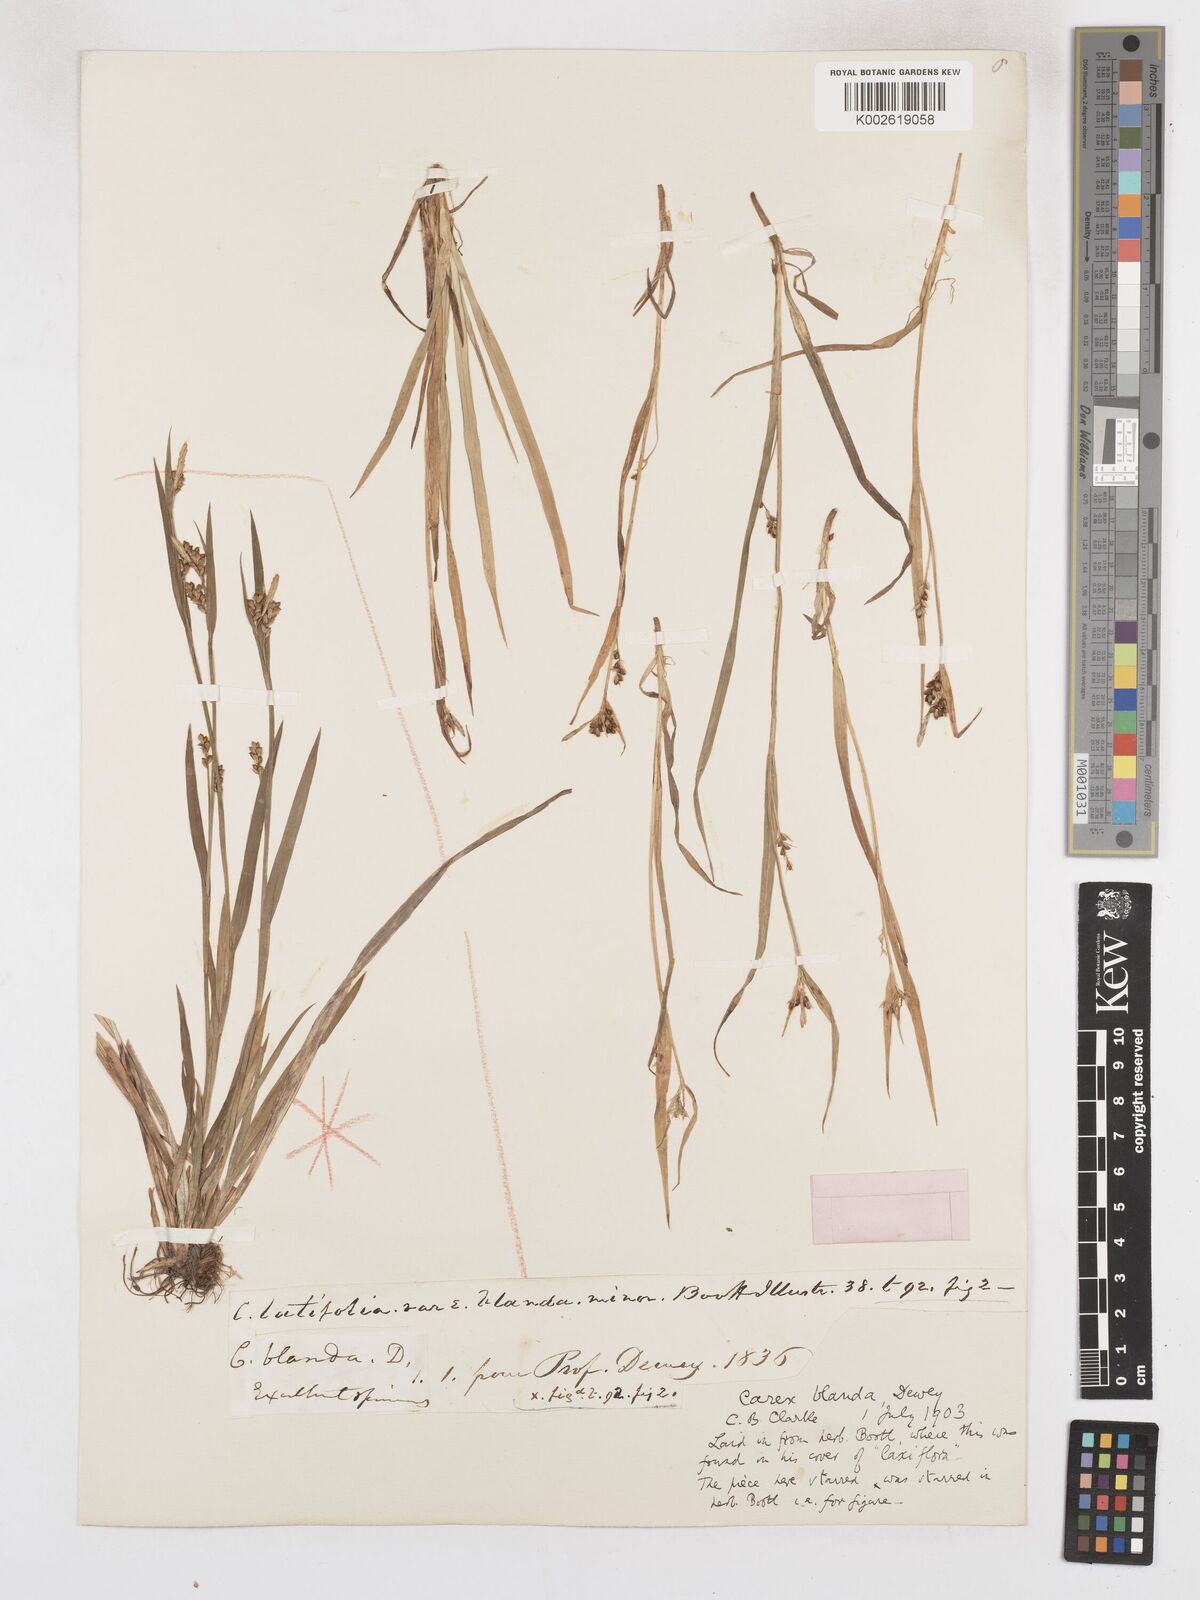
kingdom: Plantae
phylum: Tracheophyta
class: Liliopsida
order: Poales
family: Cyperaceae
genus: Carex
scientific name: Carex blanda
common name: Bland sedge
